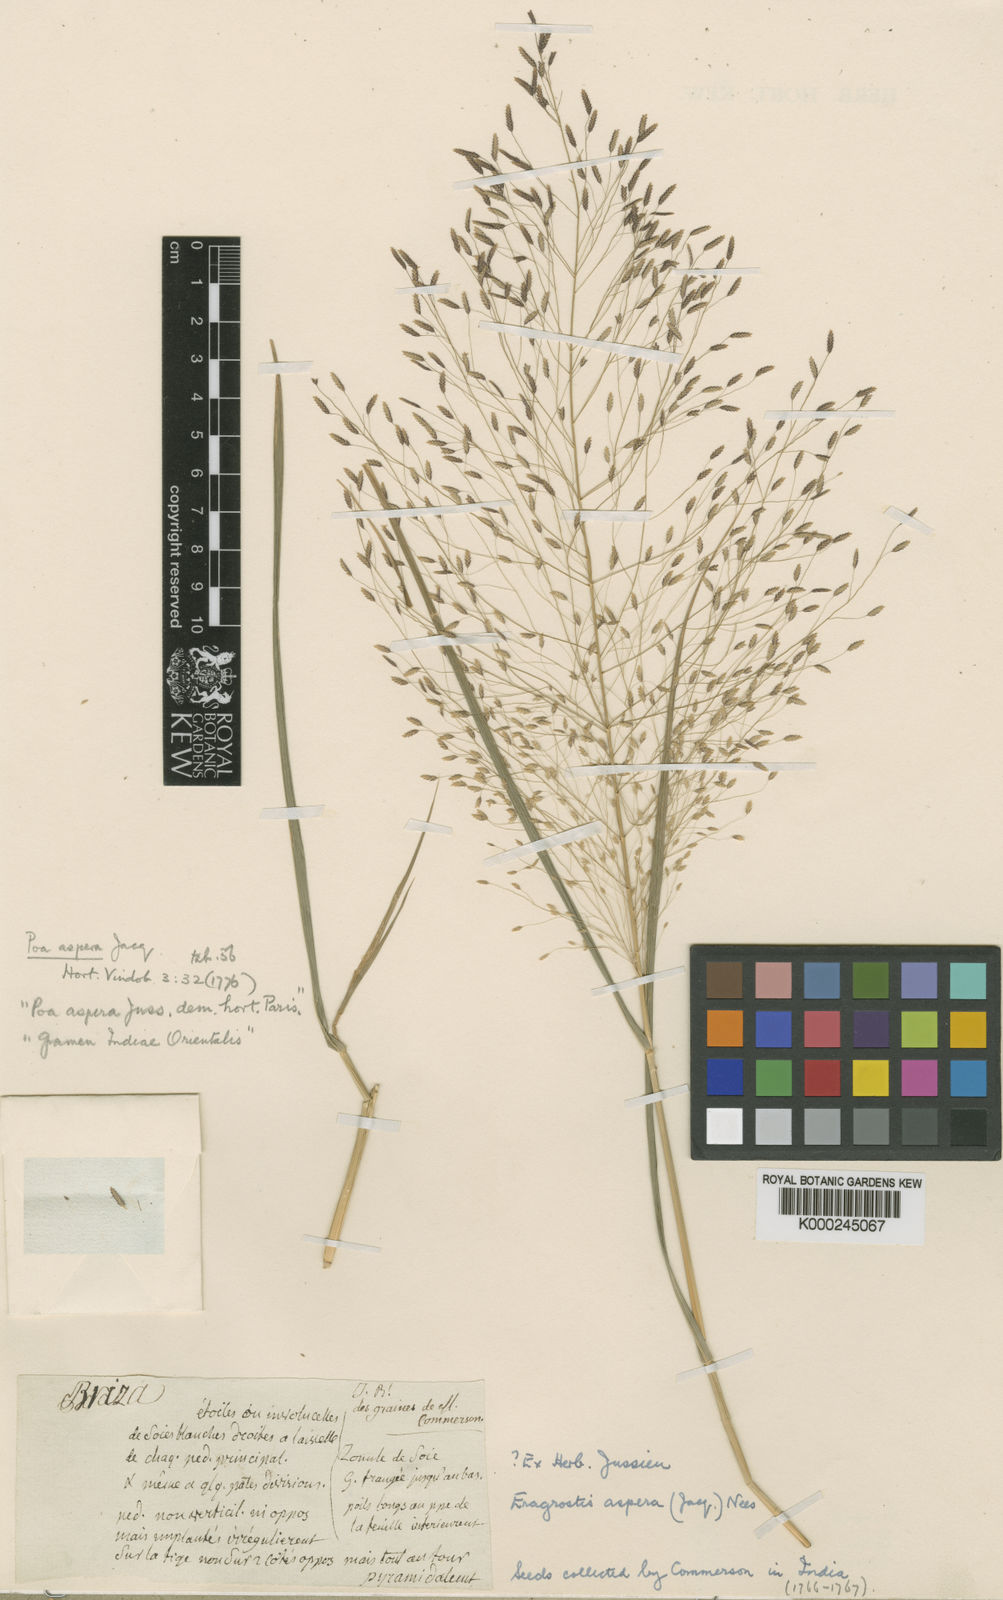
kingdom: Plantae
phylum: Tracheophyta
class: Liliopsida
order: Poales
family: Poaceae
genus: Eragrostis
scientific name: Eragrostis aspera
